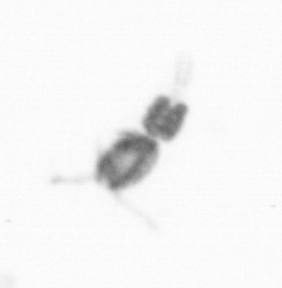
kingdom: Animalia
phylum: Arthropoda
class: Copepoda
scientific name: Copepoda
